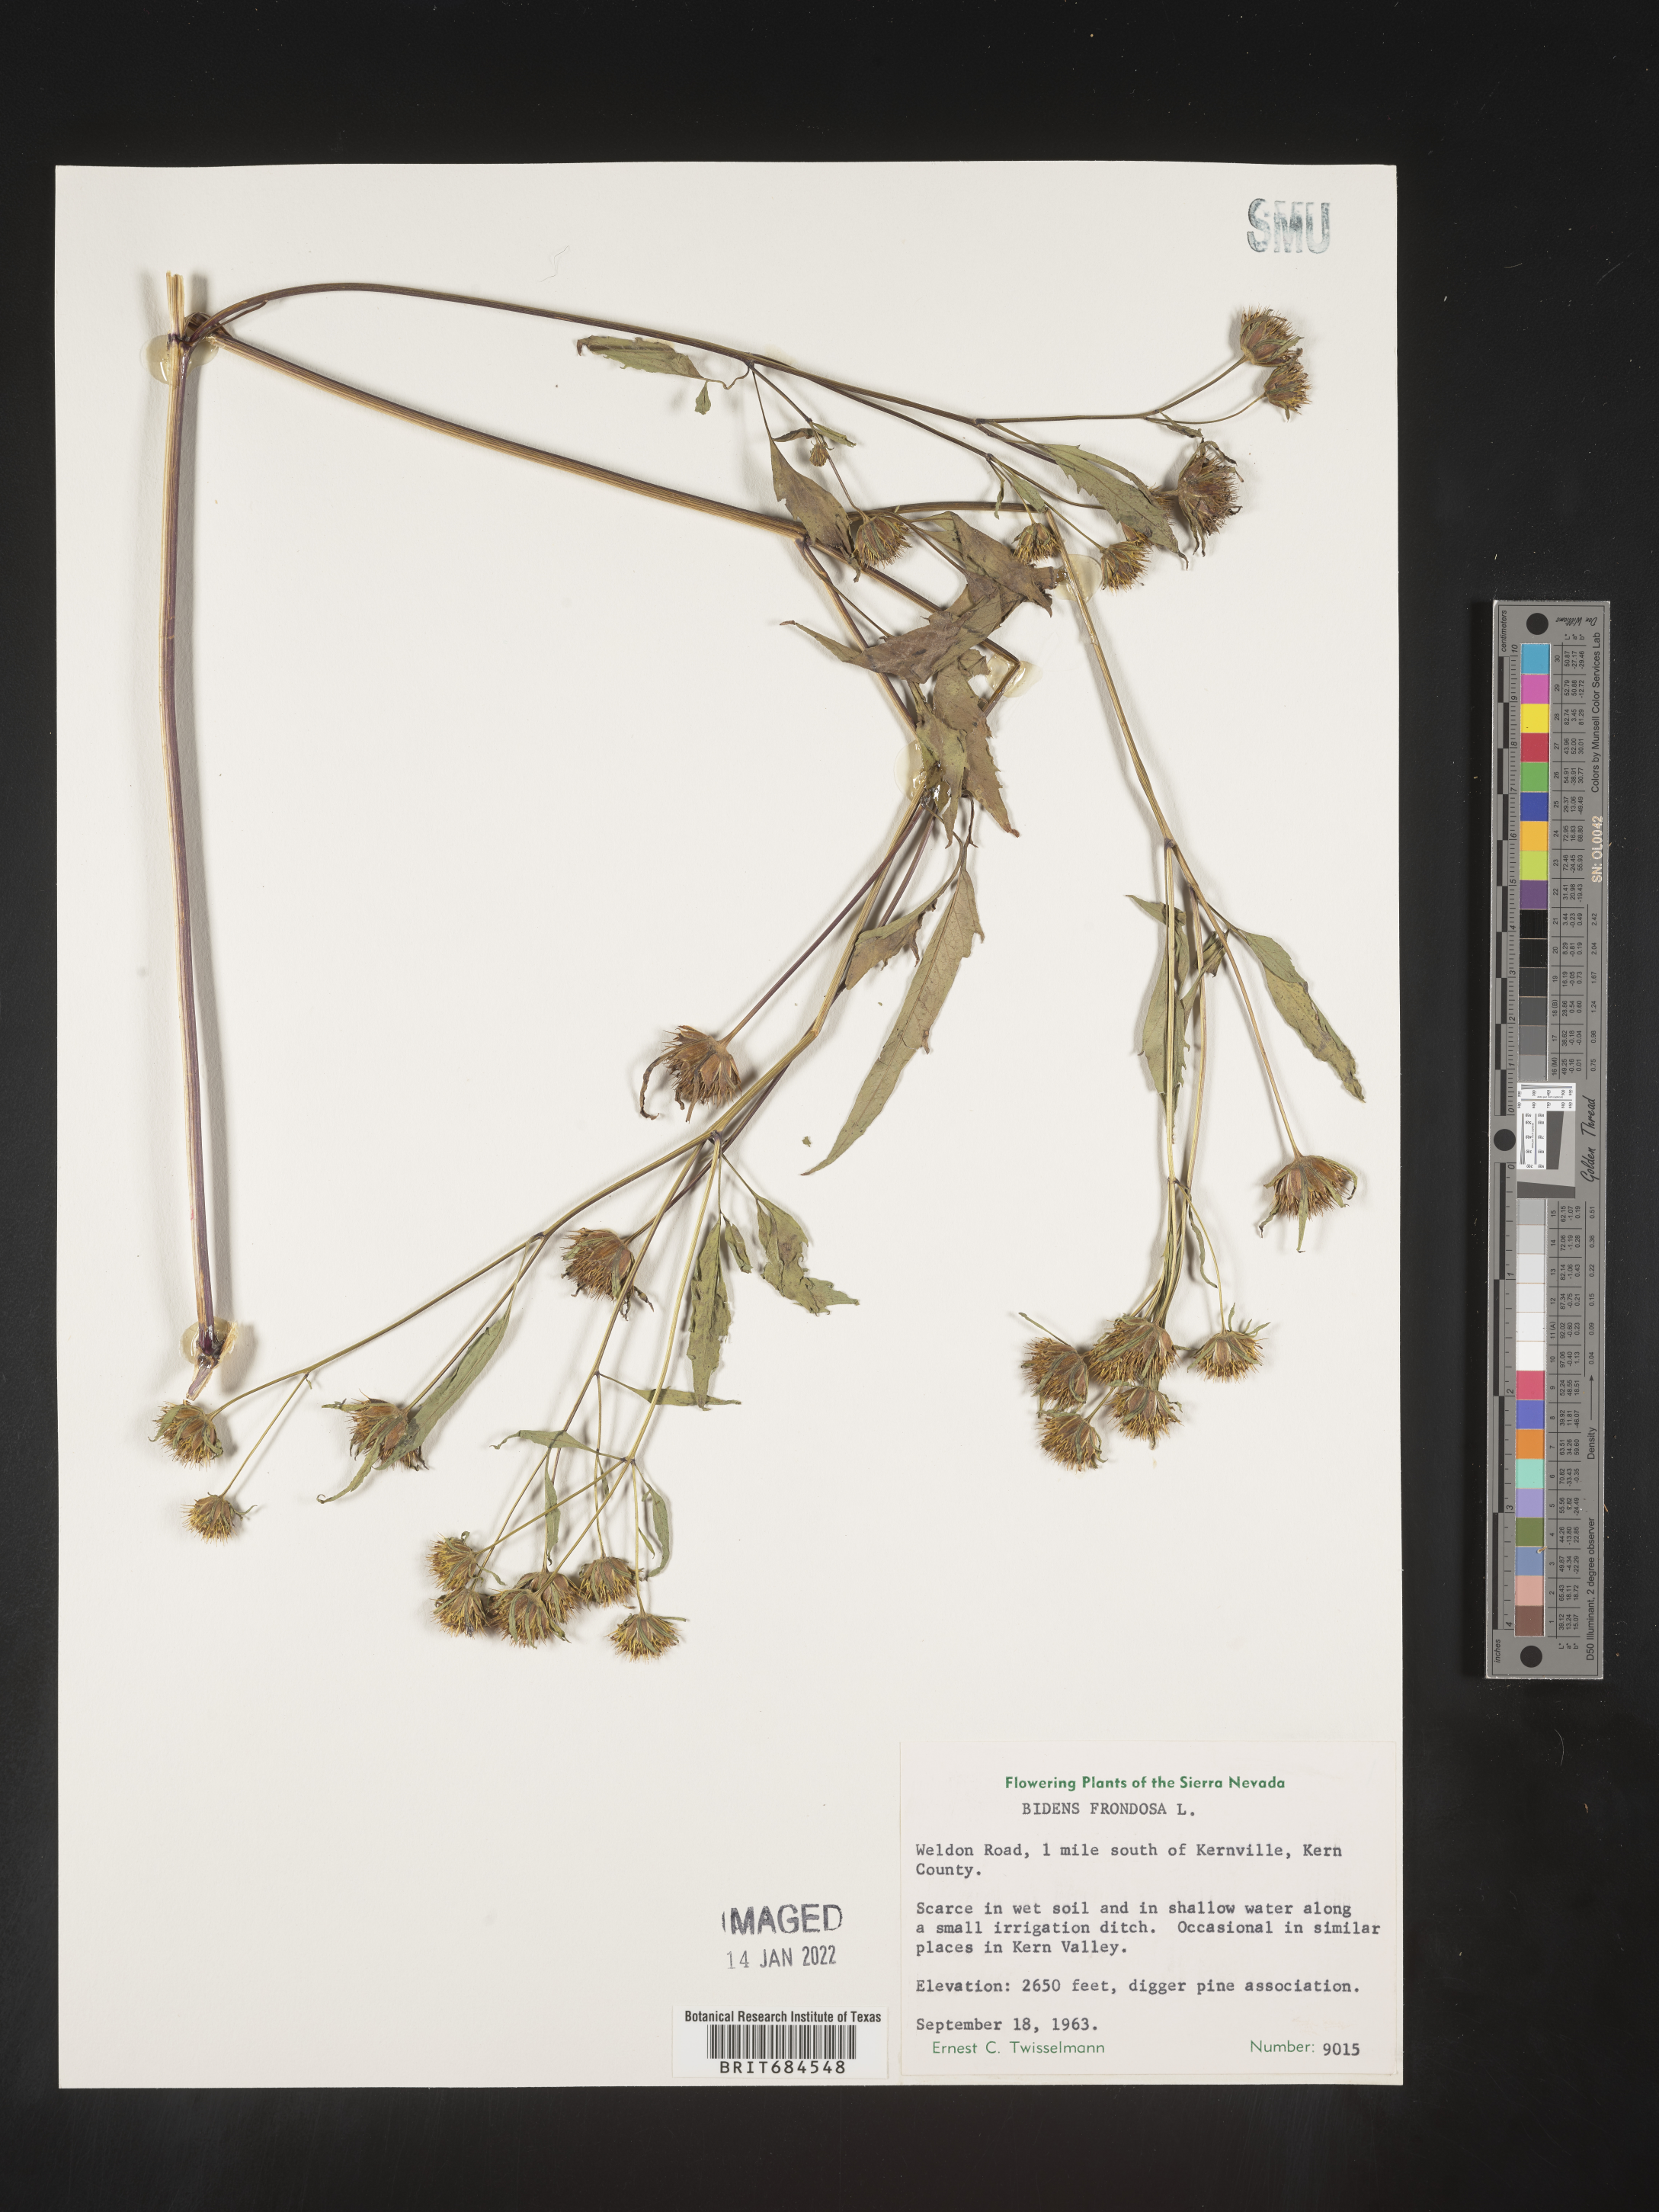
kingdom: Plantae
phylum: Tracheophyta
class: Magnoliopsida
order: Asterales
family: Asteraceae
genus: Bidens
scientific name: Bidens frondosa
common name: Beggarticks
